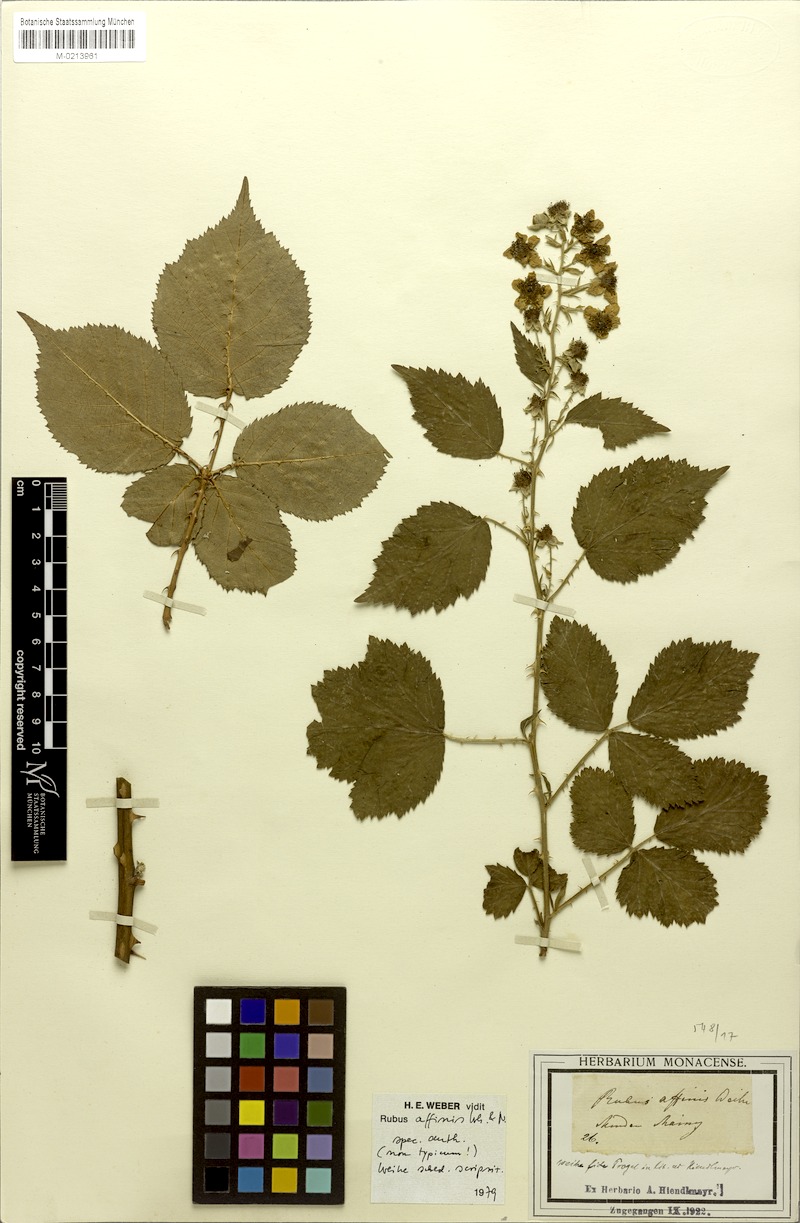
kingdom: Plantae
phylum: Tracheophyta
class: Magnoliopsida
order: Rosales
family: Rosaceae
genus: Rubus
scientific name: Rubus plicatus
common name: Plaited-leaved bramble
